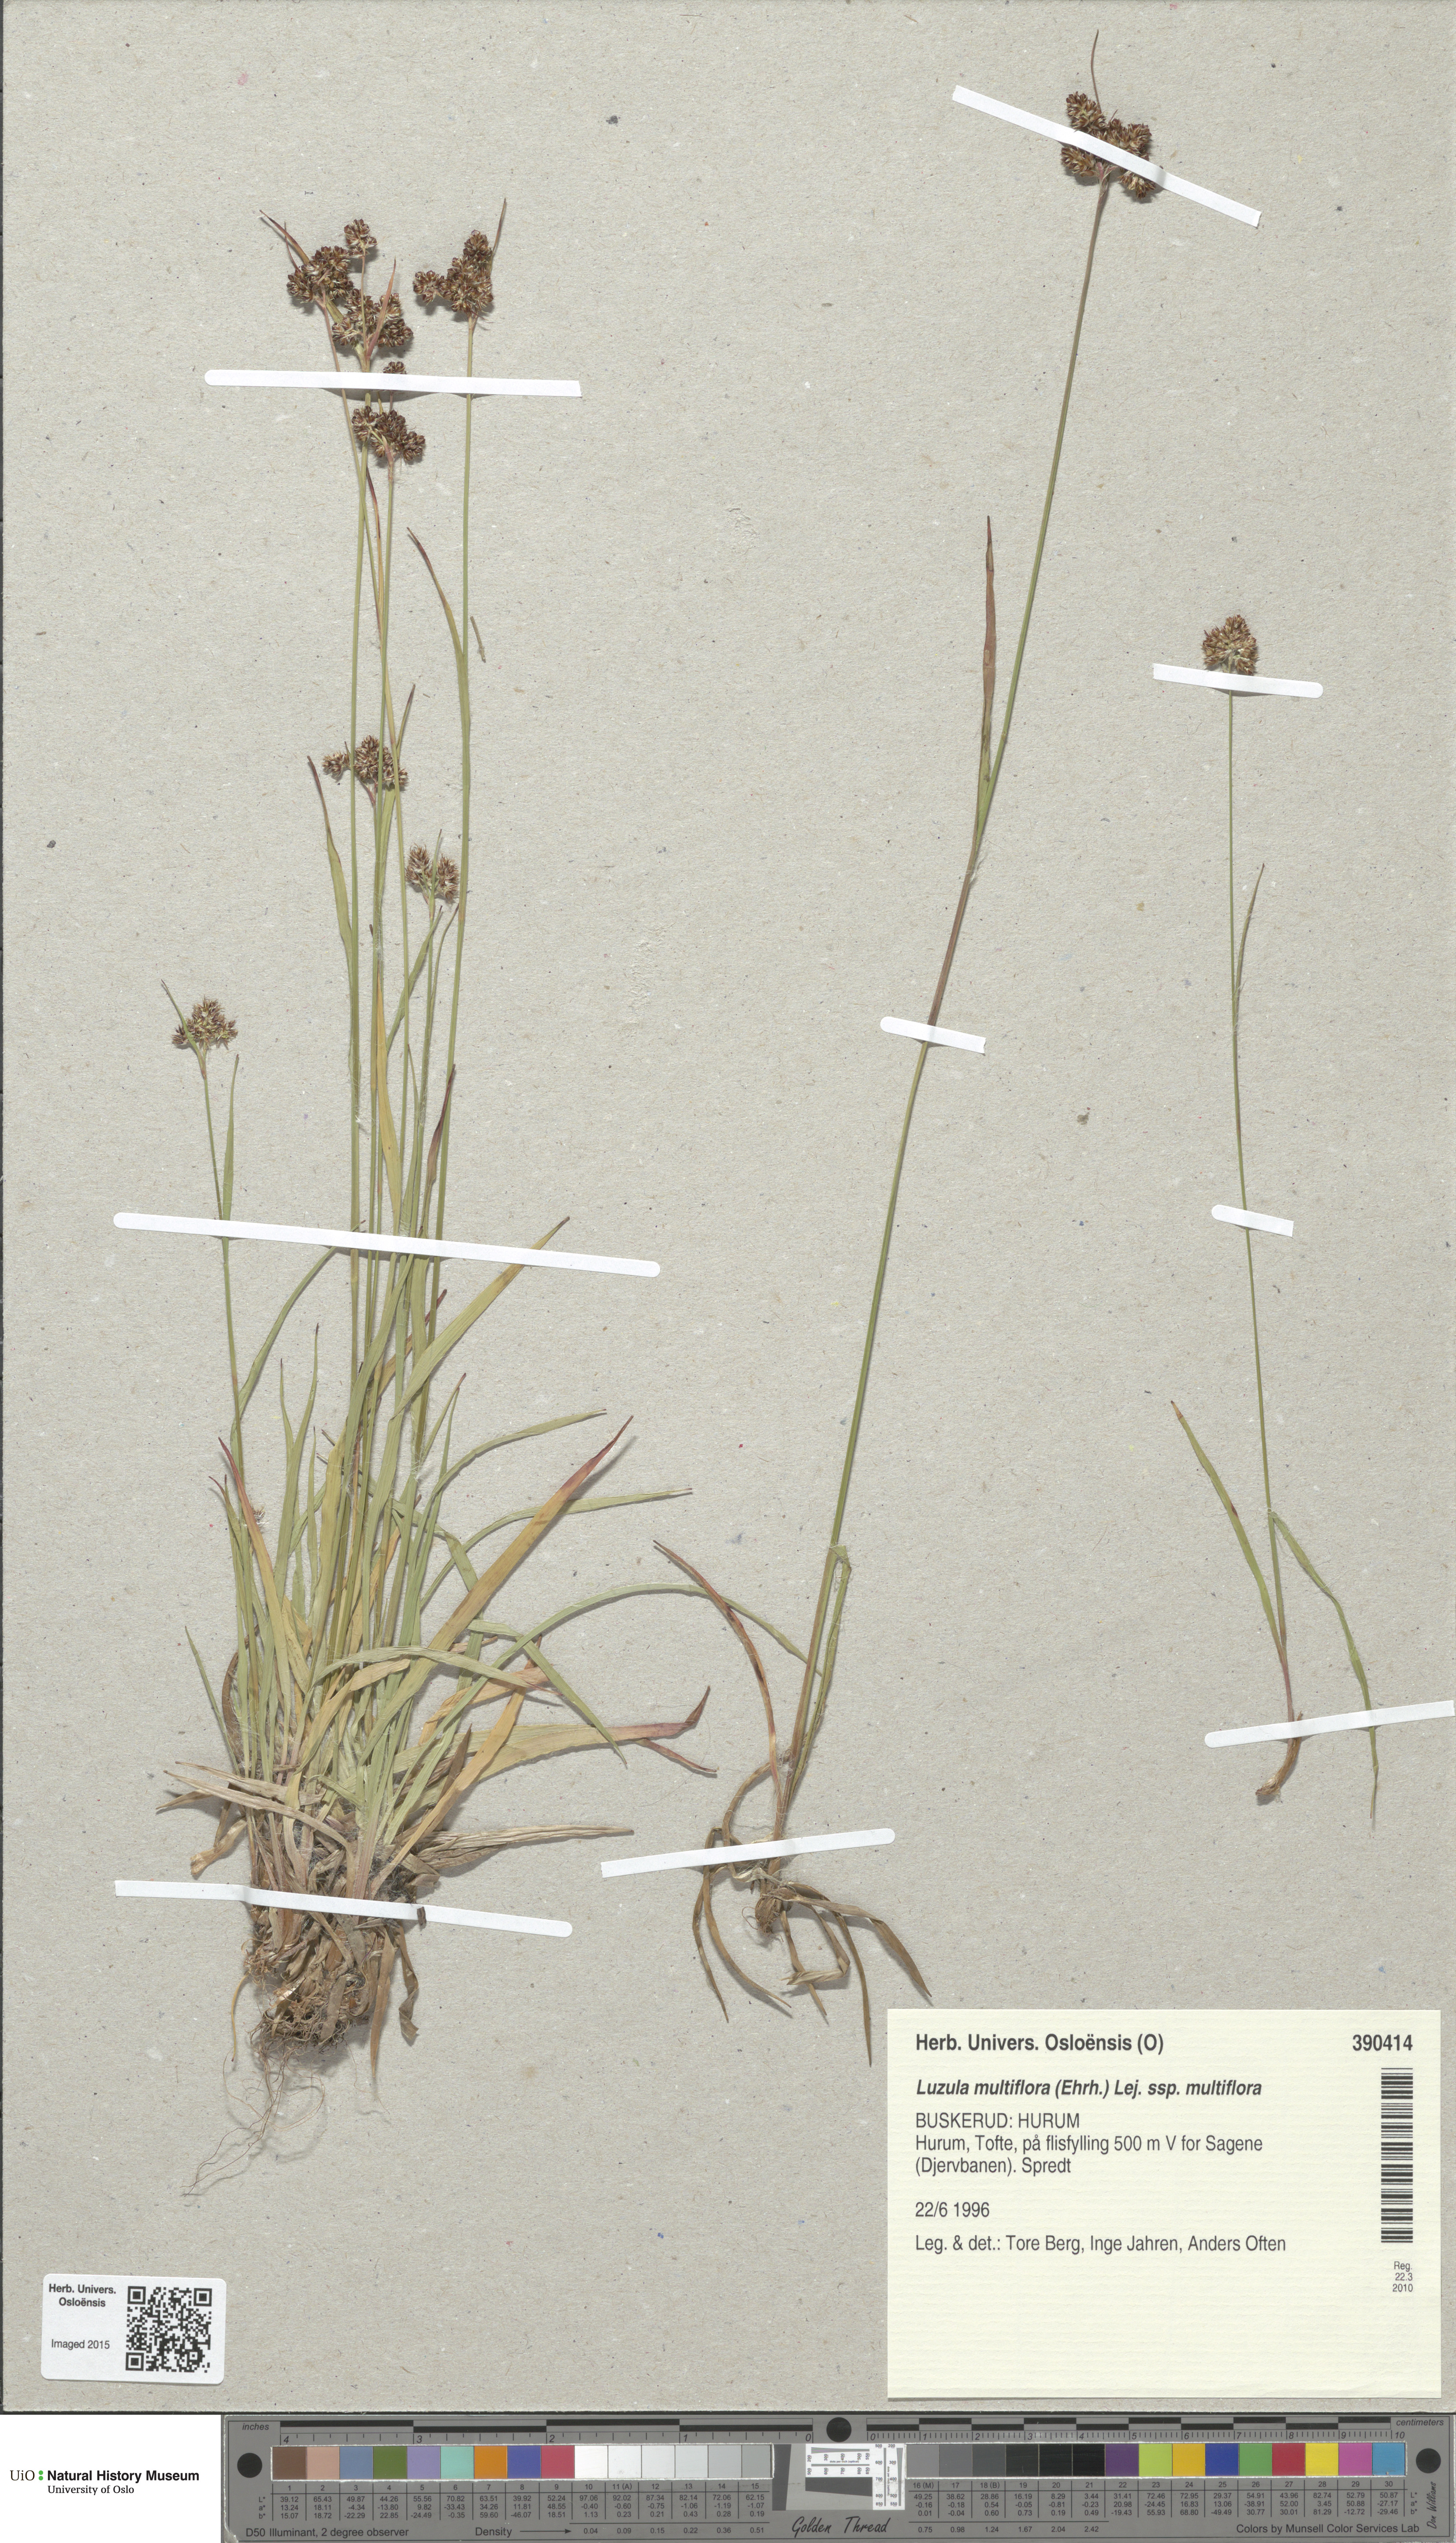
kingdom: Plantae
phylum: Tracheophyta
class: Liliopsida
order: Poales
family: Juncaceae
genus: Luzula
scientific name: Luzula multiflora
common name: Heath wood-rush
